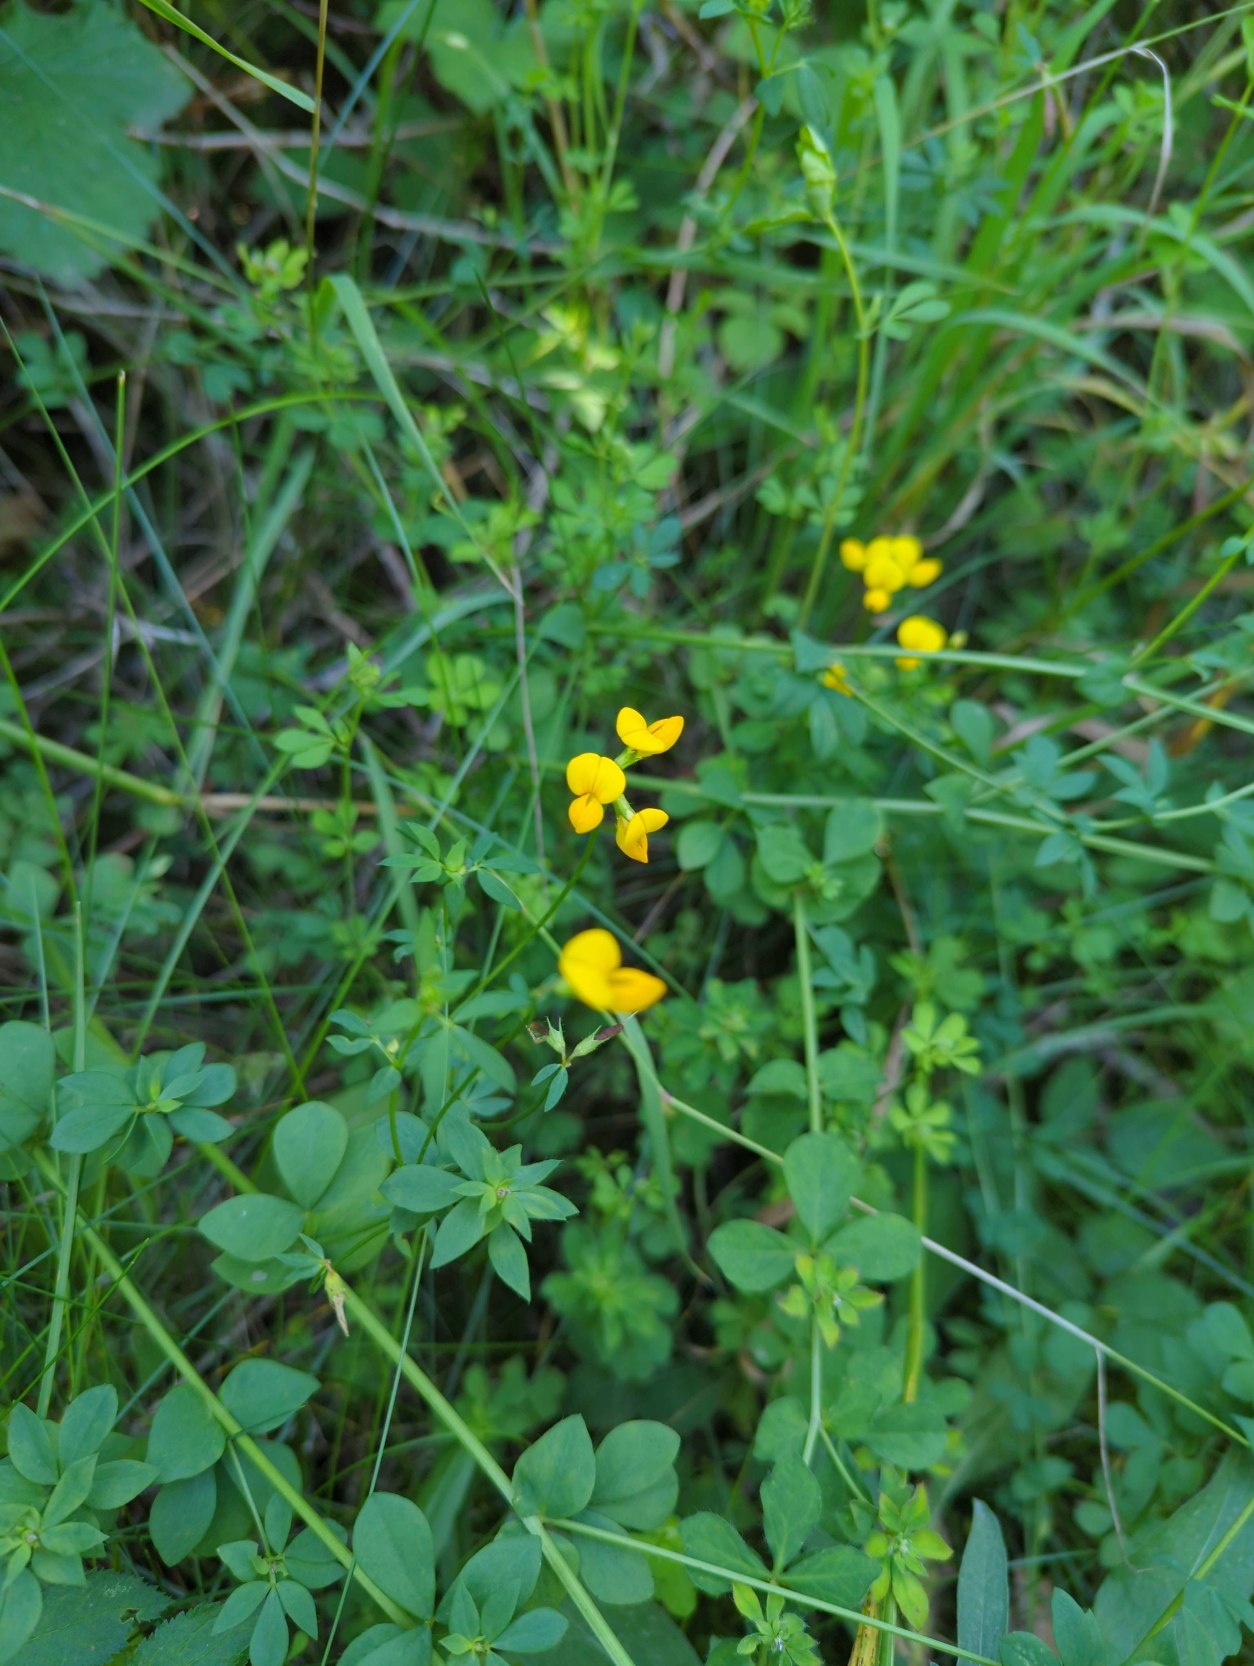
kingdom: Plantae
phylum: Tracheophyta
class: Magnoliopsida
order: Fabales
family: Fabaceae
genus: Lotus
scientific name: Lotus corniculatus
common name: Almindelig kællingetand
